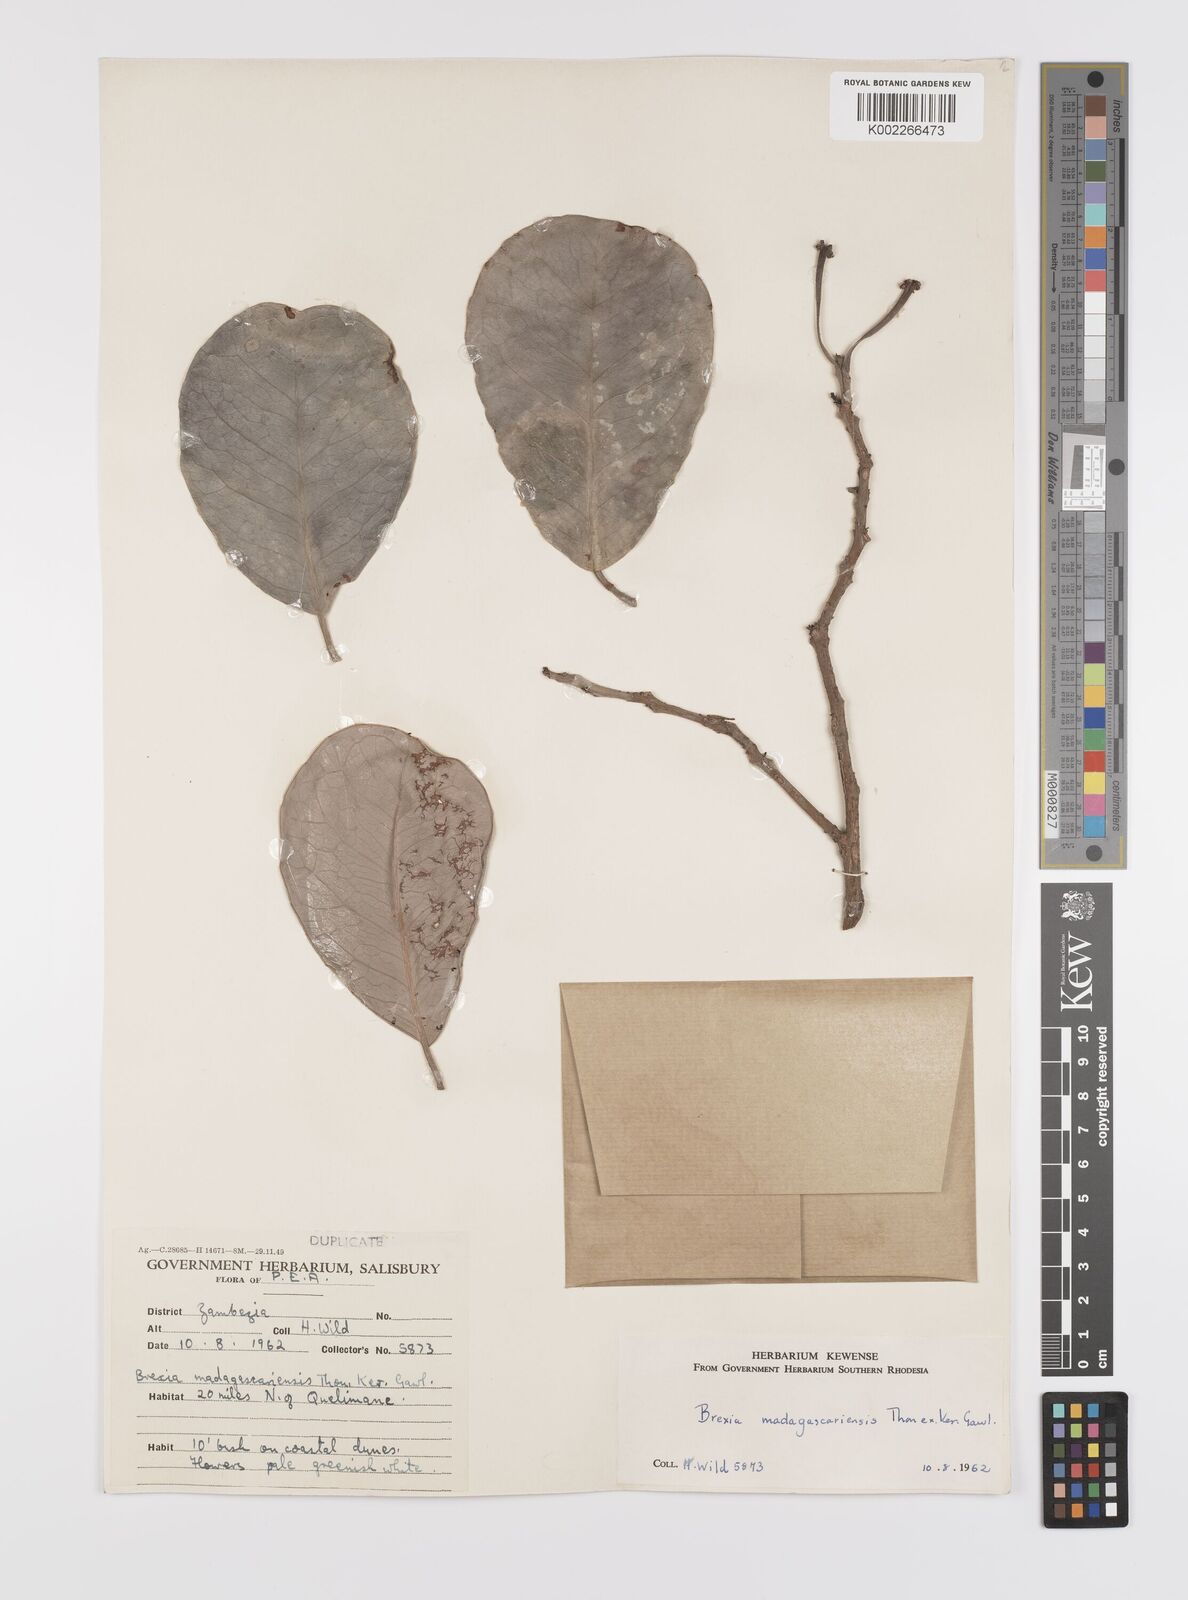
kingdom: Plantae
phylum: Tracheophyta
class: Magnoliopsida
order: Celastrales
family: Celastraceae
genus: Brexia
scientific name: Brexia madagascariensis
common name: Brexia
